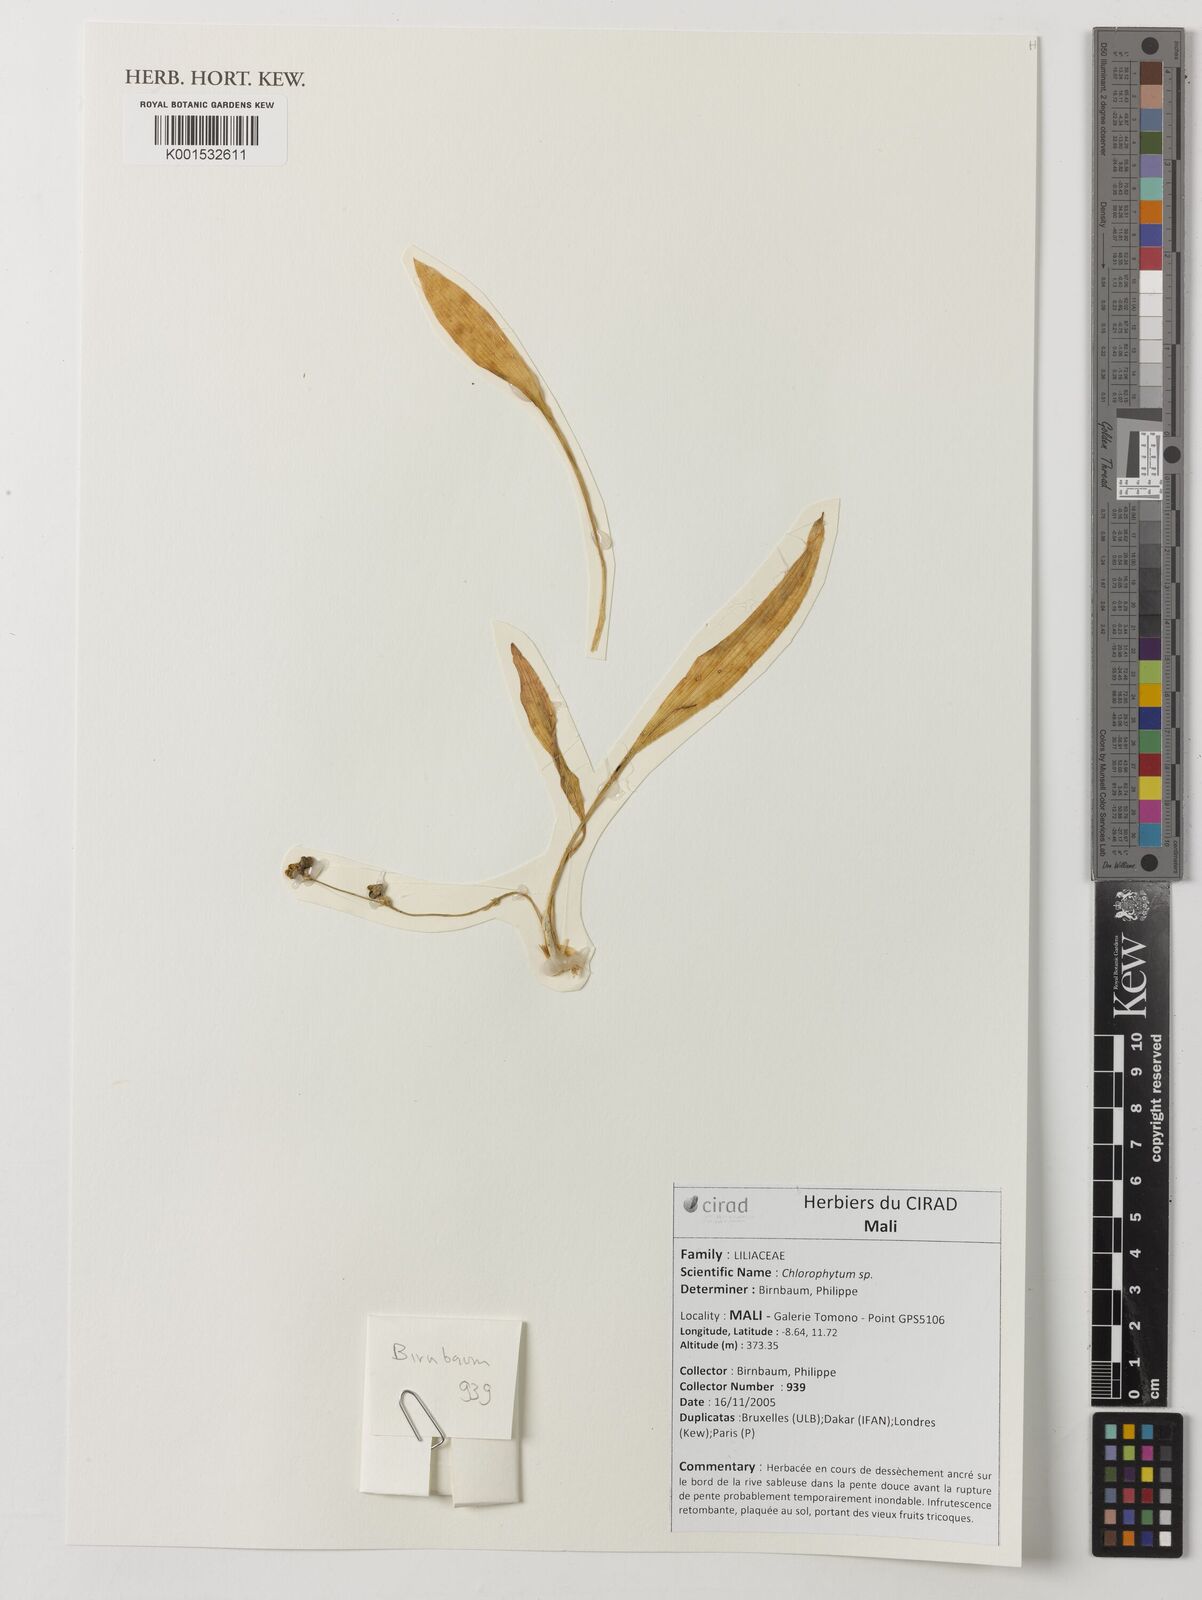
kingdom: Plantae
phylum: Tracheophyta
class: Liliopsida
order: Asparagales
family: Asparagaceae
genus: Chlorophytum
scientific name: Chlorophytum
